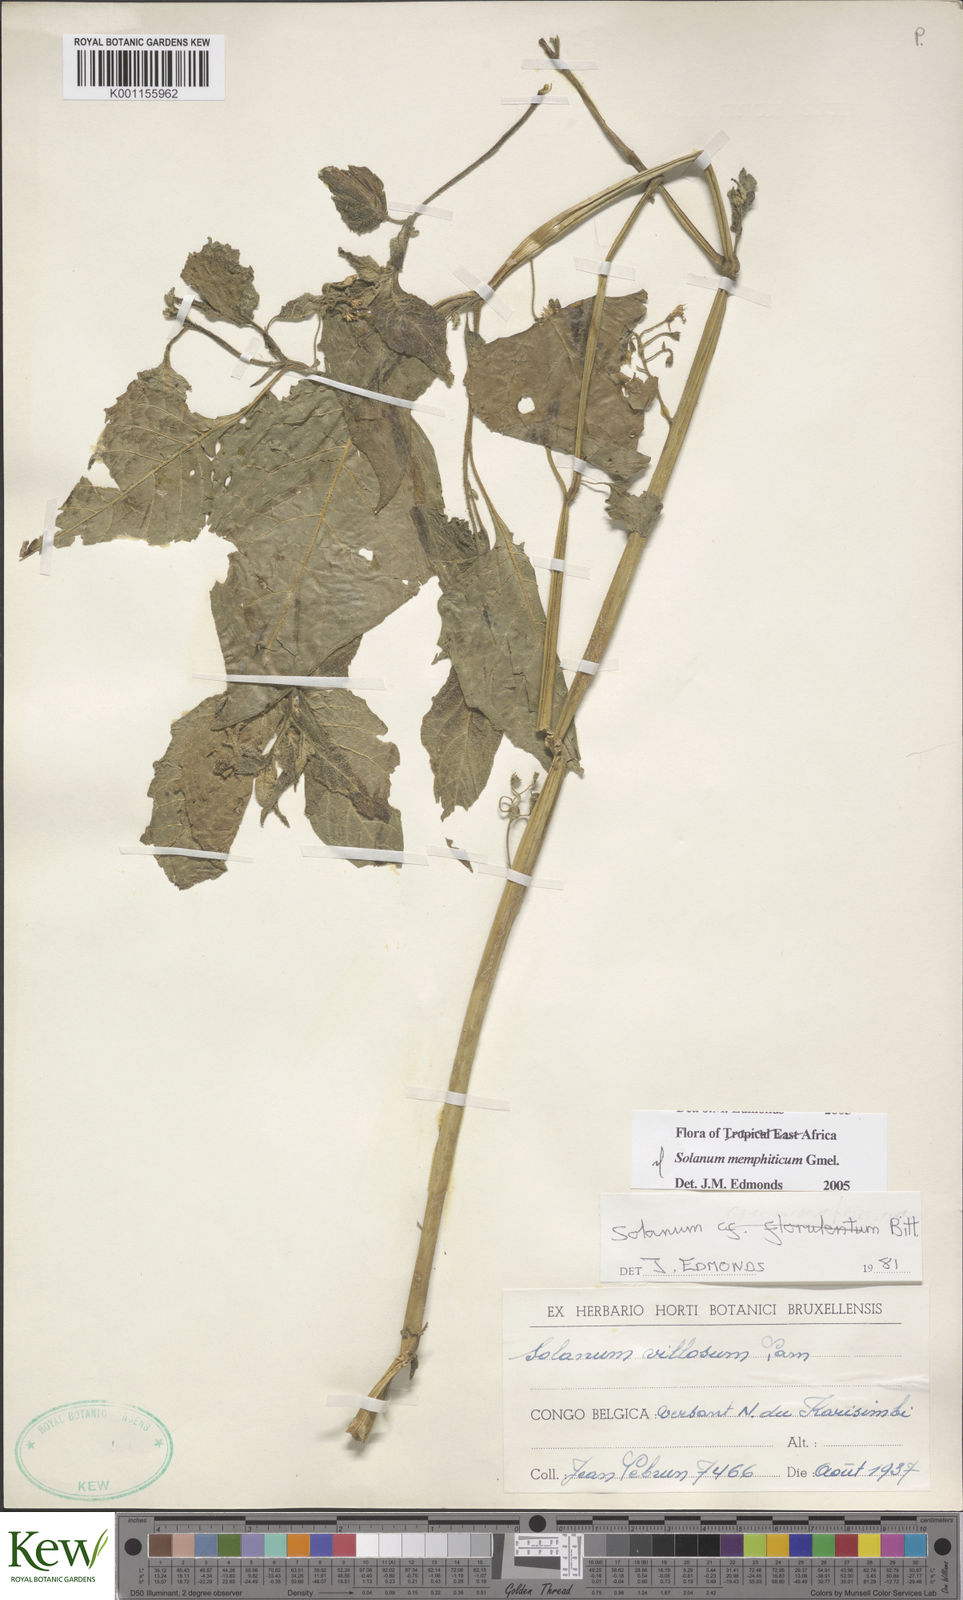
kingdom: Plantae
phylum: Tracheophyta
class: Magnoliopsida
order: Solanales
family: Solanaceae
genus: Solanum
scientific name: Solanum tarderemotum
